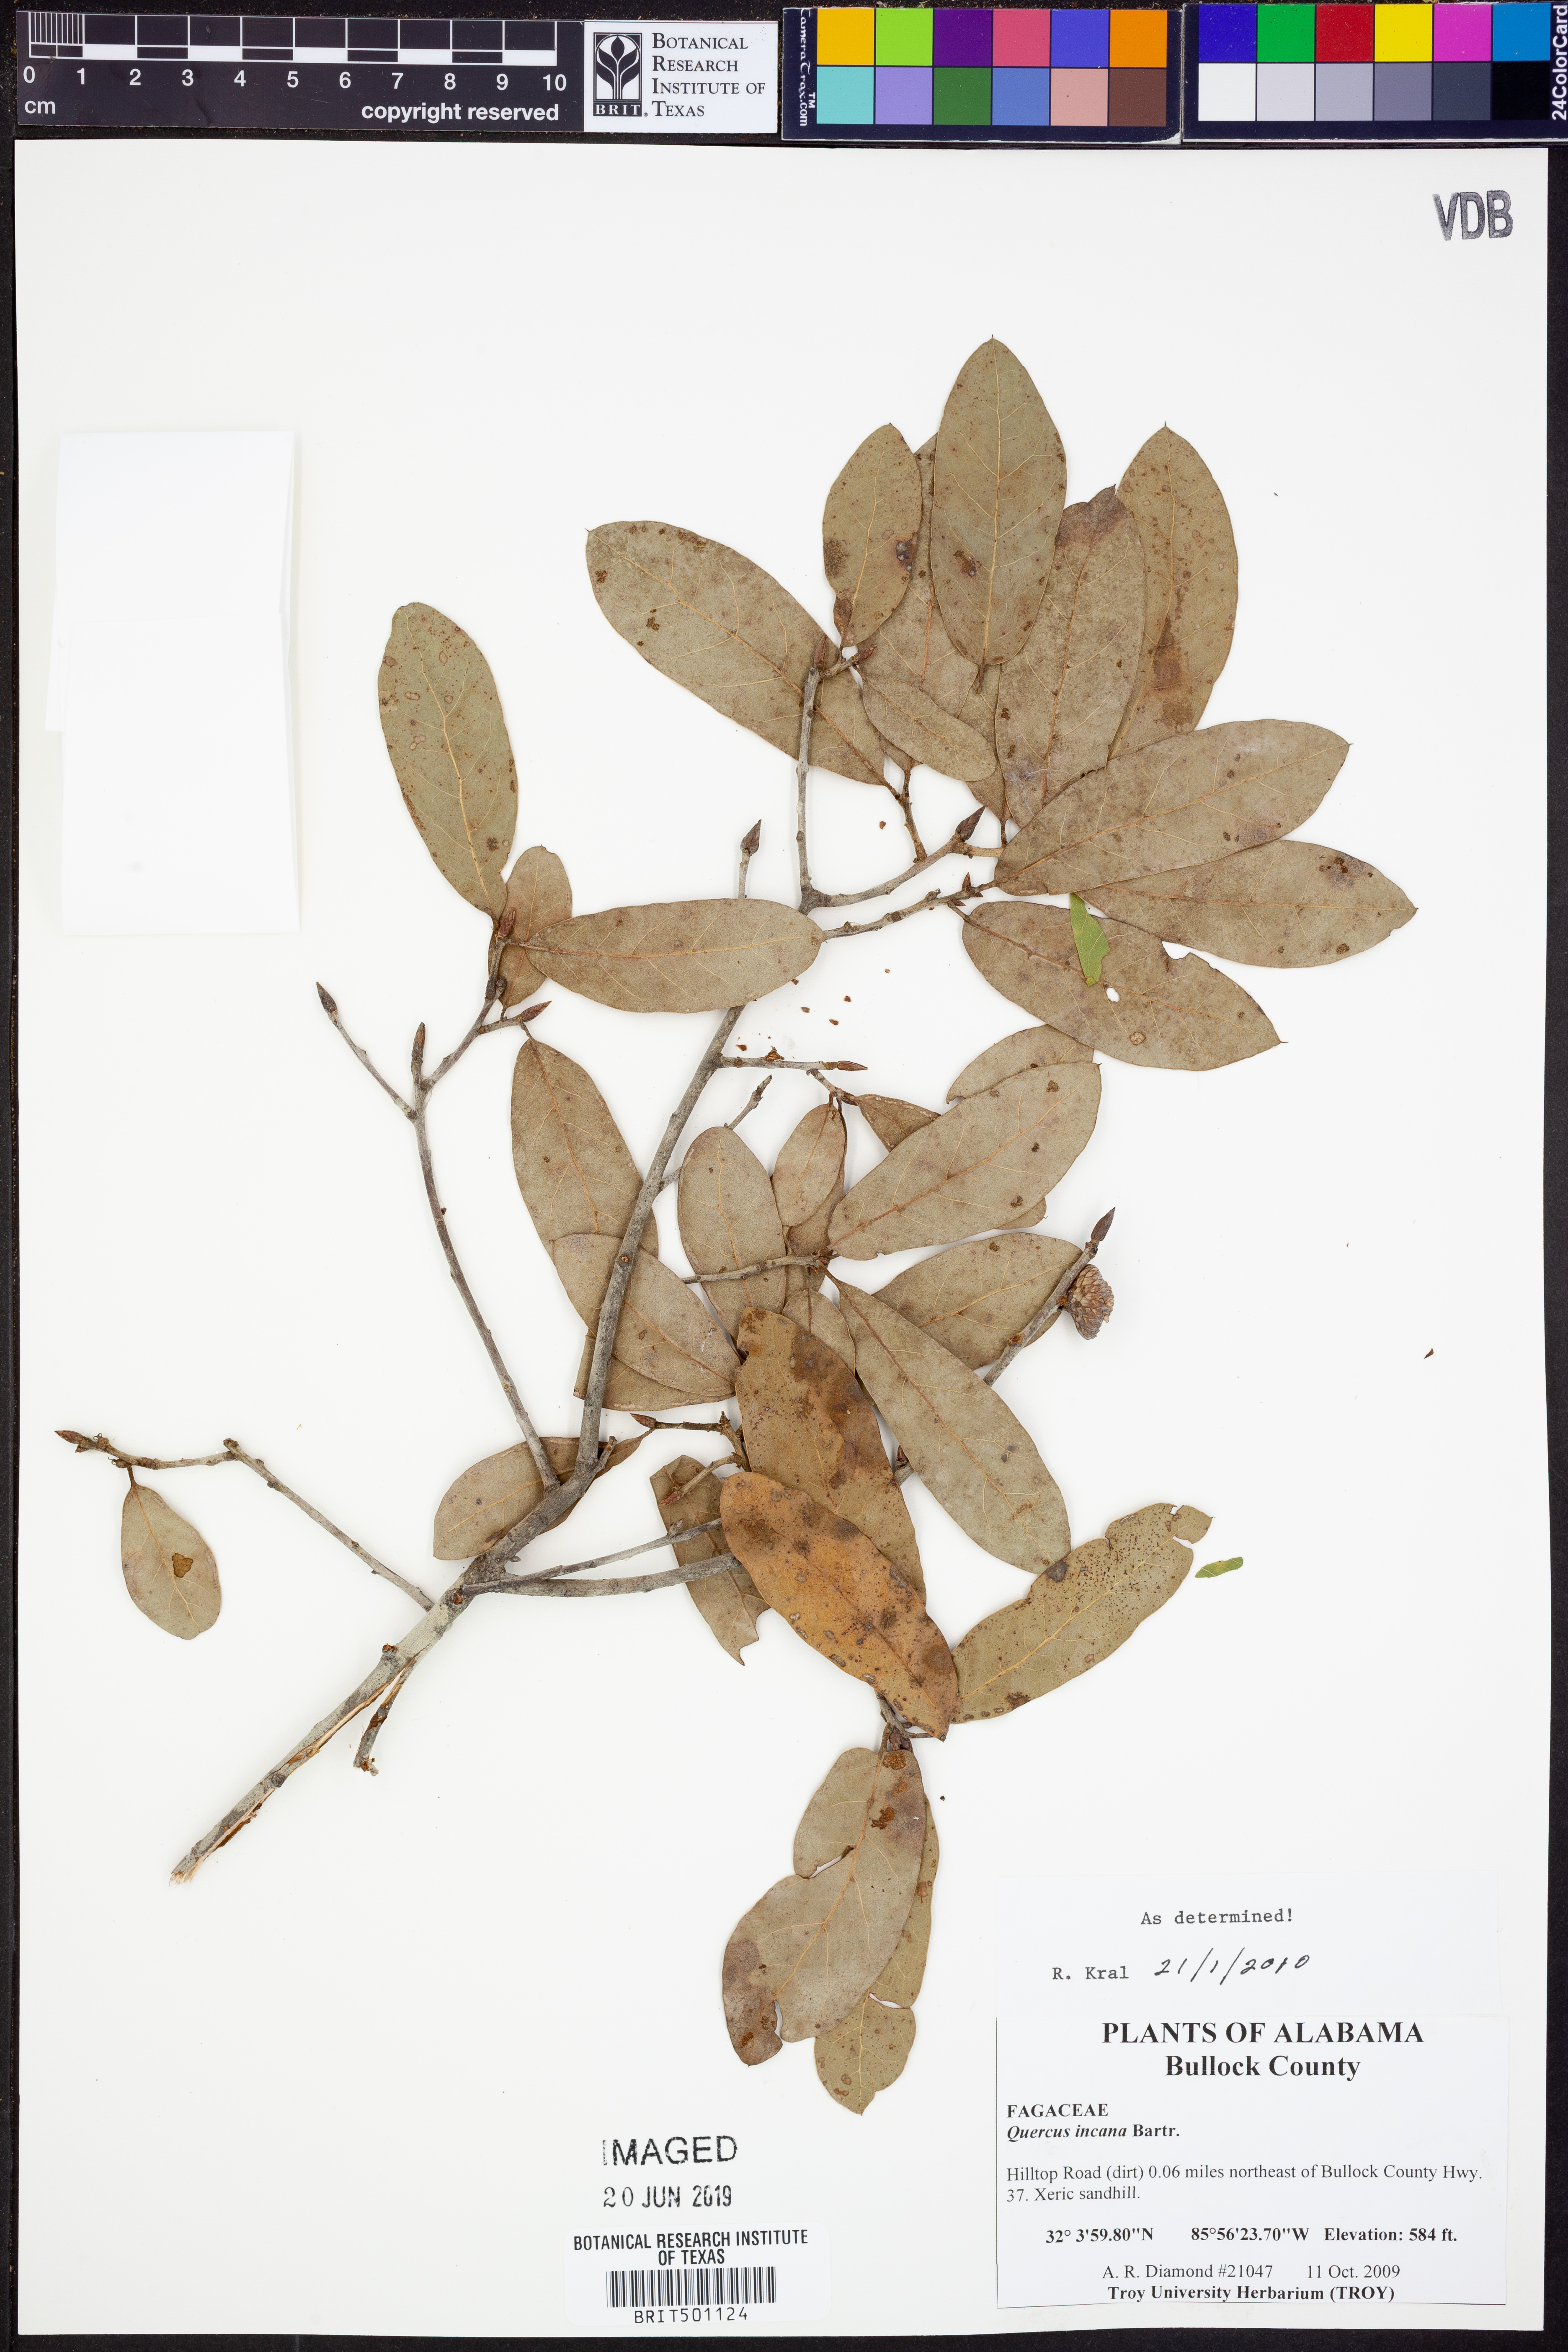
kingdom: Plantae
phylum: Tracheophyta
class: Magnoliopsida
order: Fagales
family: Fagaceae
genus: Quercus
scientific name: Quercus incana
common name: Bluejack oak
